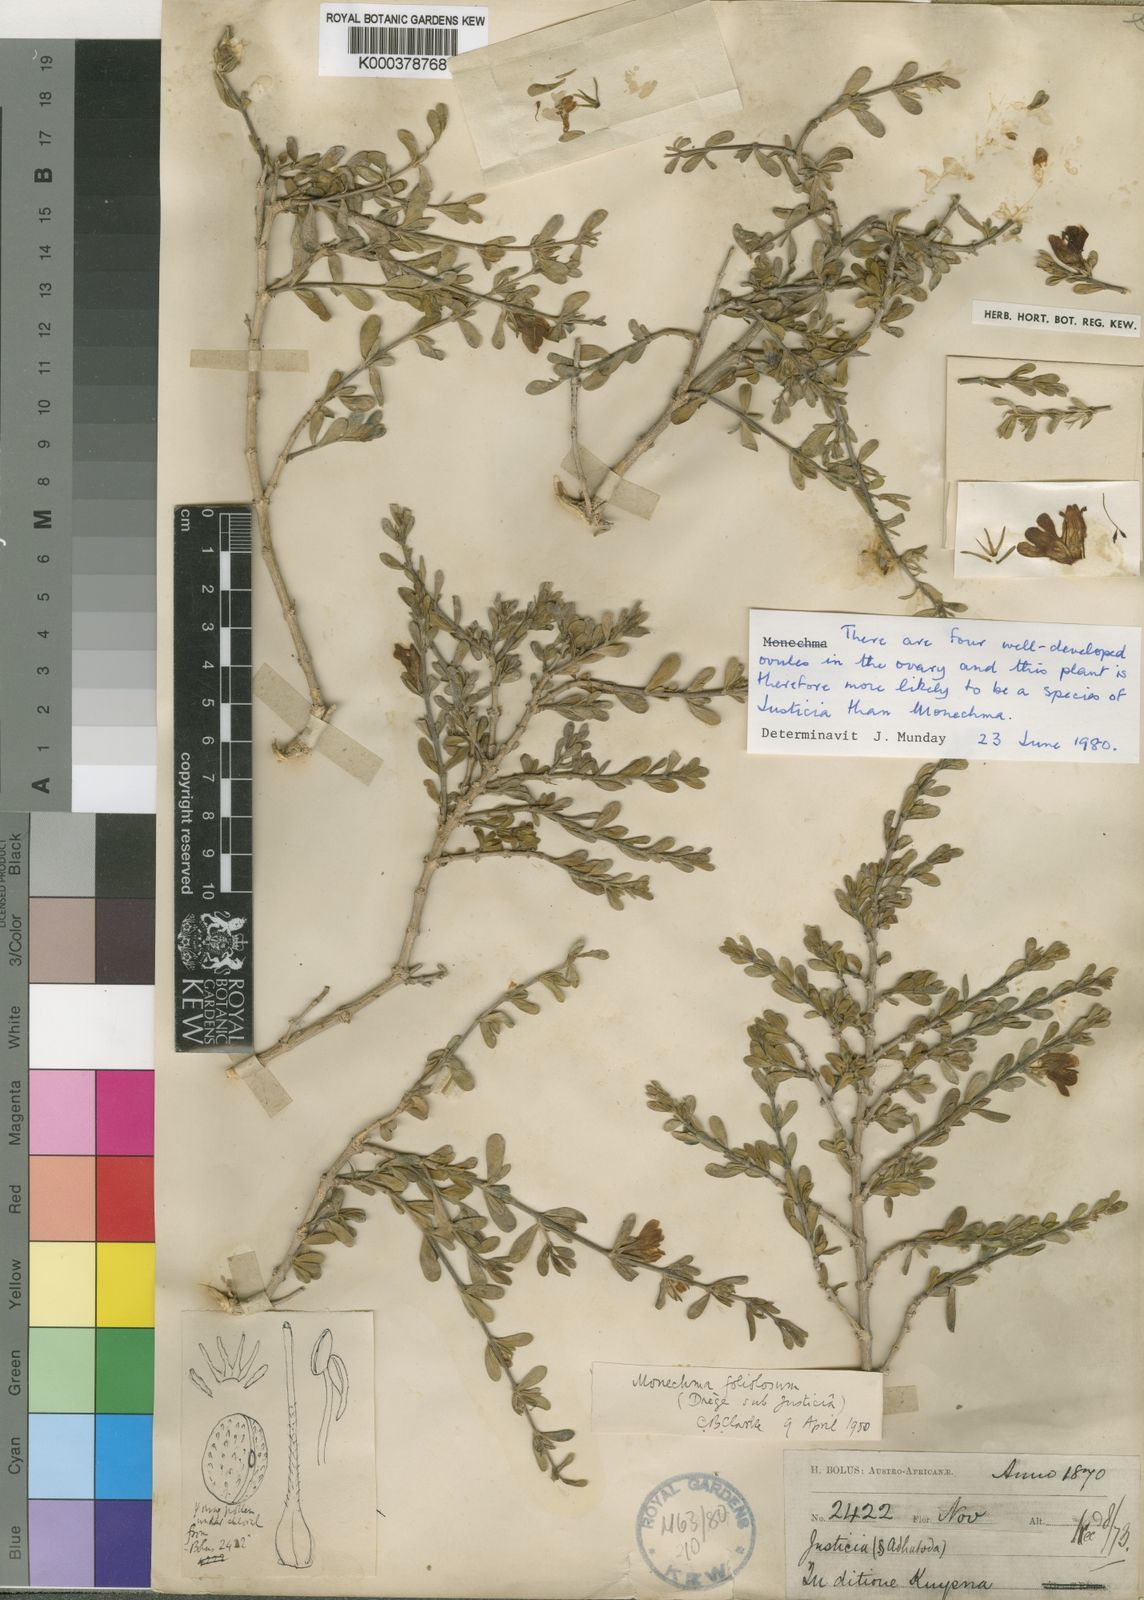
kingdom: Plantae
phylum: Tracheophyta
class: Magnoliopsida
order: Lamiales
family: Acanthaceae
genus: Justicia
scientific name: Justicia cuneata
